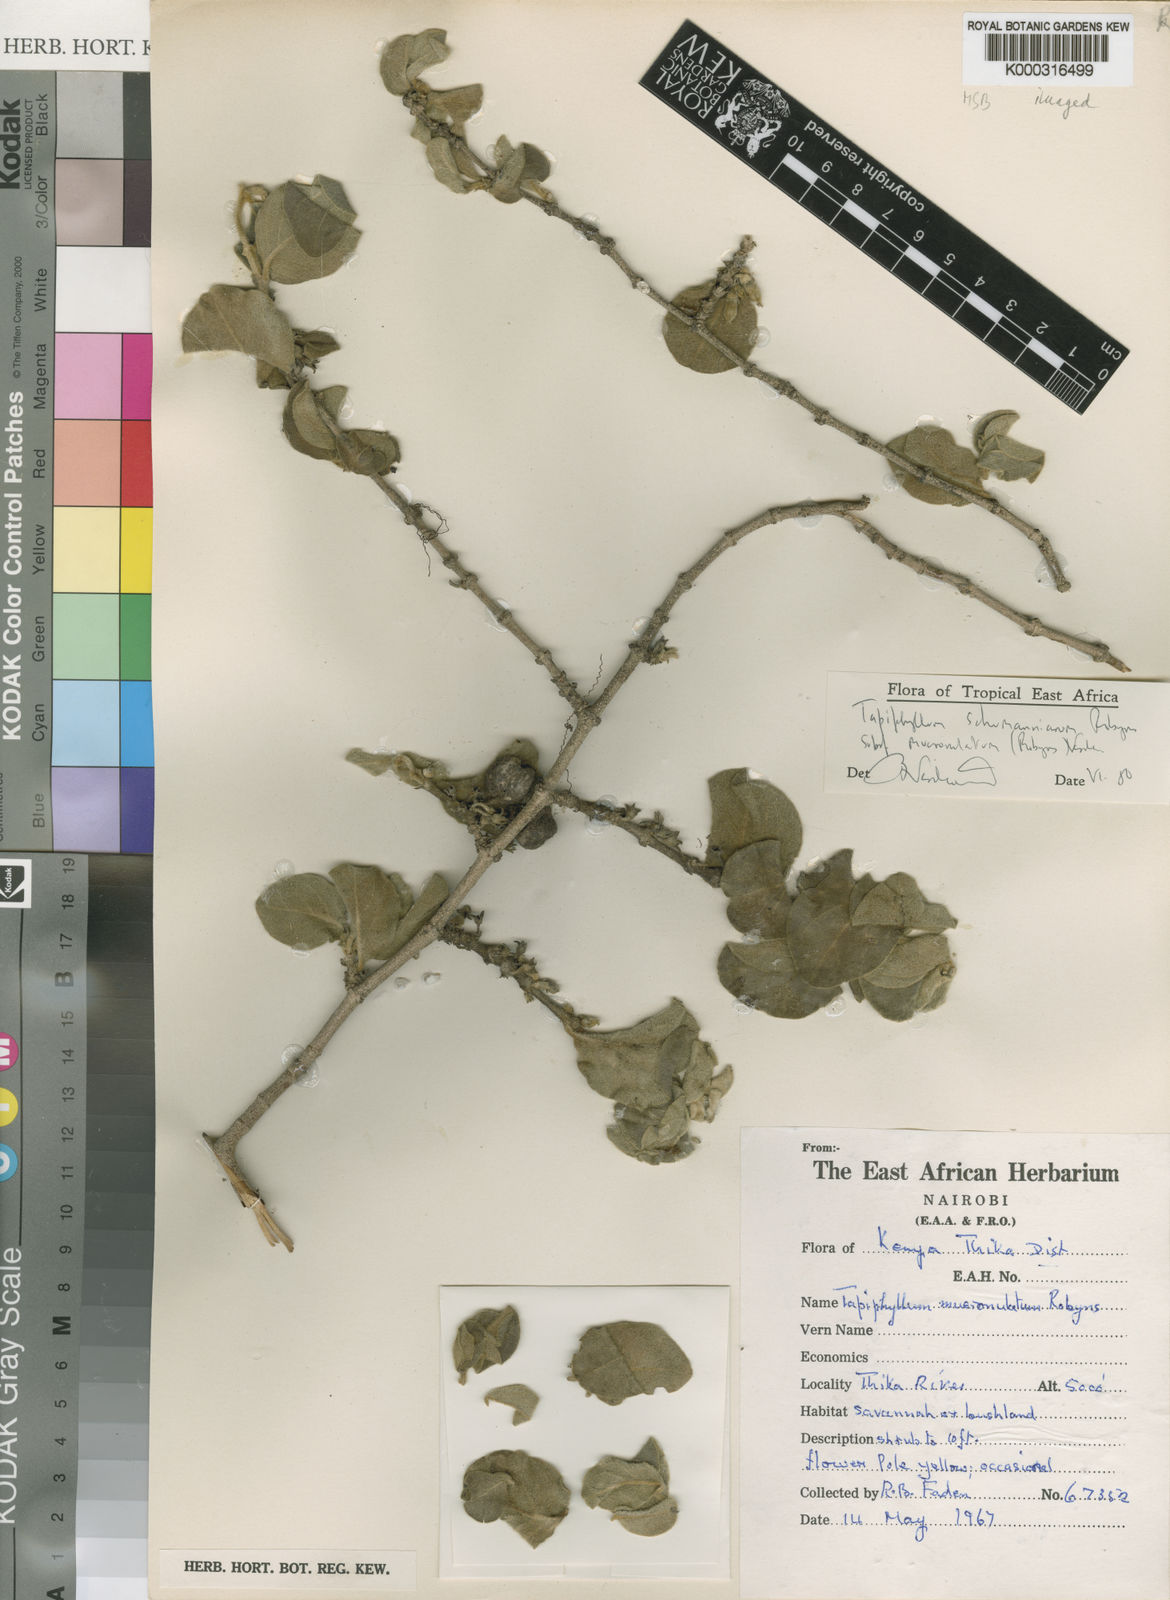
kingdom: Plantae
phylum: Tracheophyta
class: Magnoliopsida
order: Gentianales
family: Rubiaceae
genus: Vangueria
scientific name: Vangueria schumanniana
